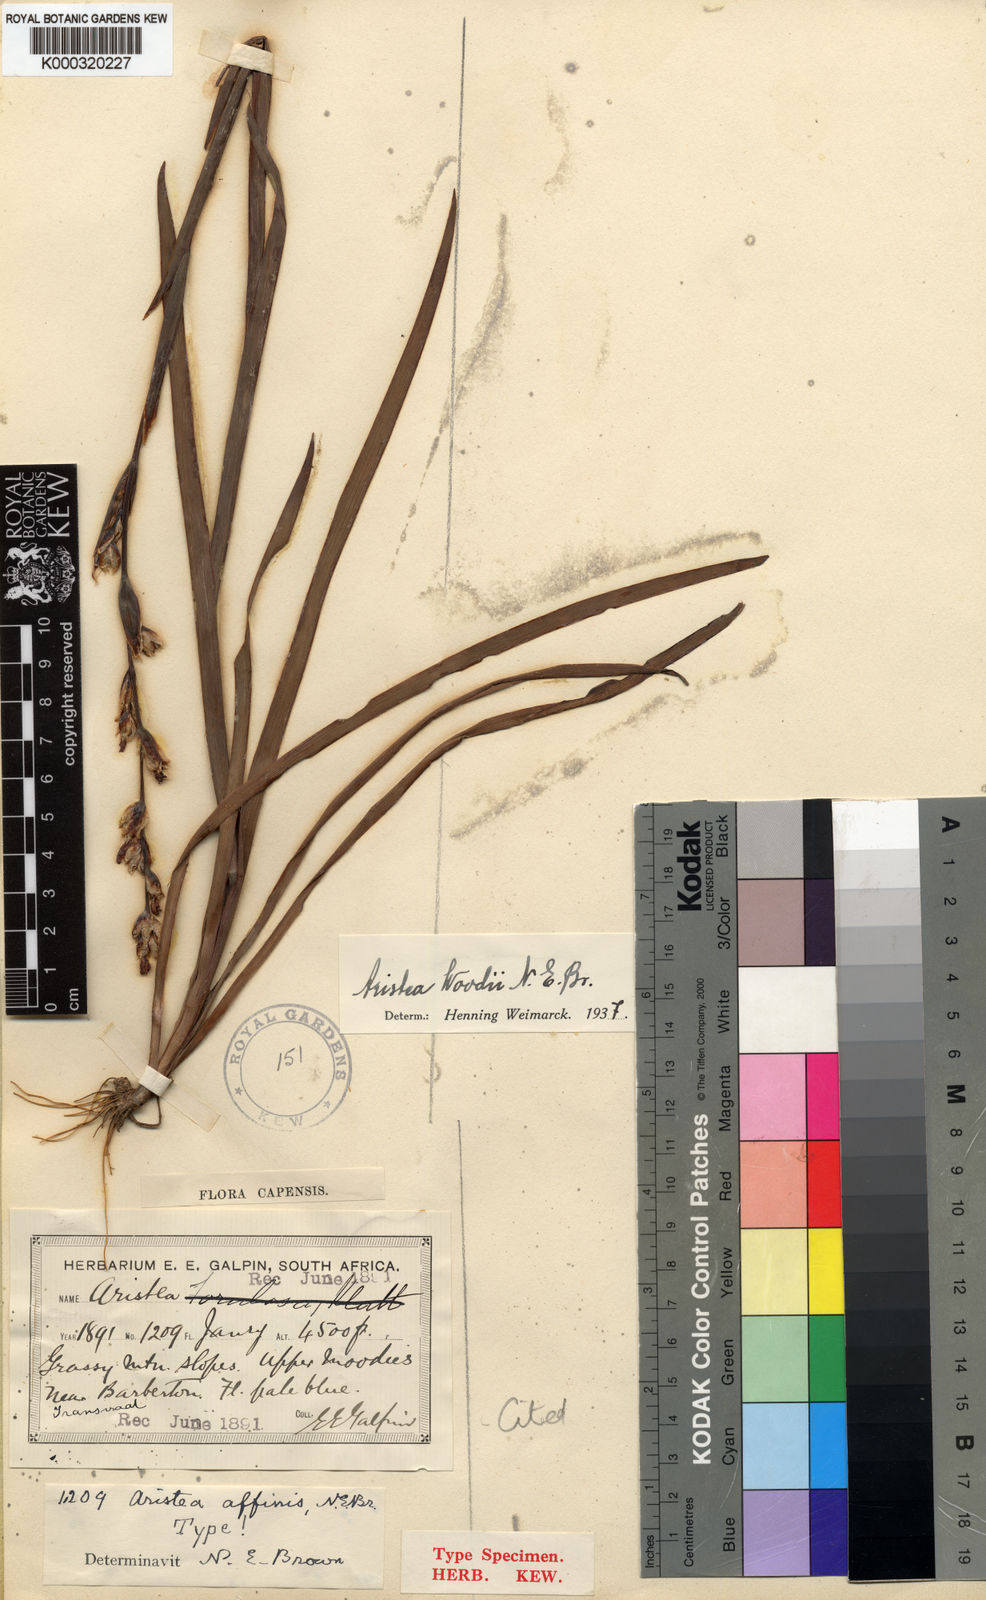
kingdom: Plantae
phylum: Tracheophyta
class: Liliopsida
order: Asparagales
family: Iridaceae
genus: Aristea
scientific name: Aristea torulosa
